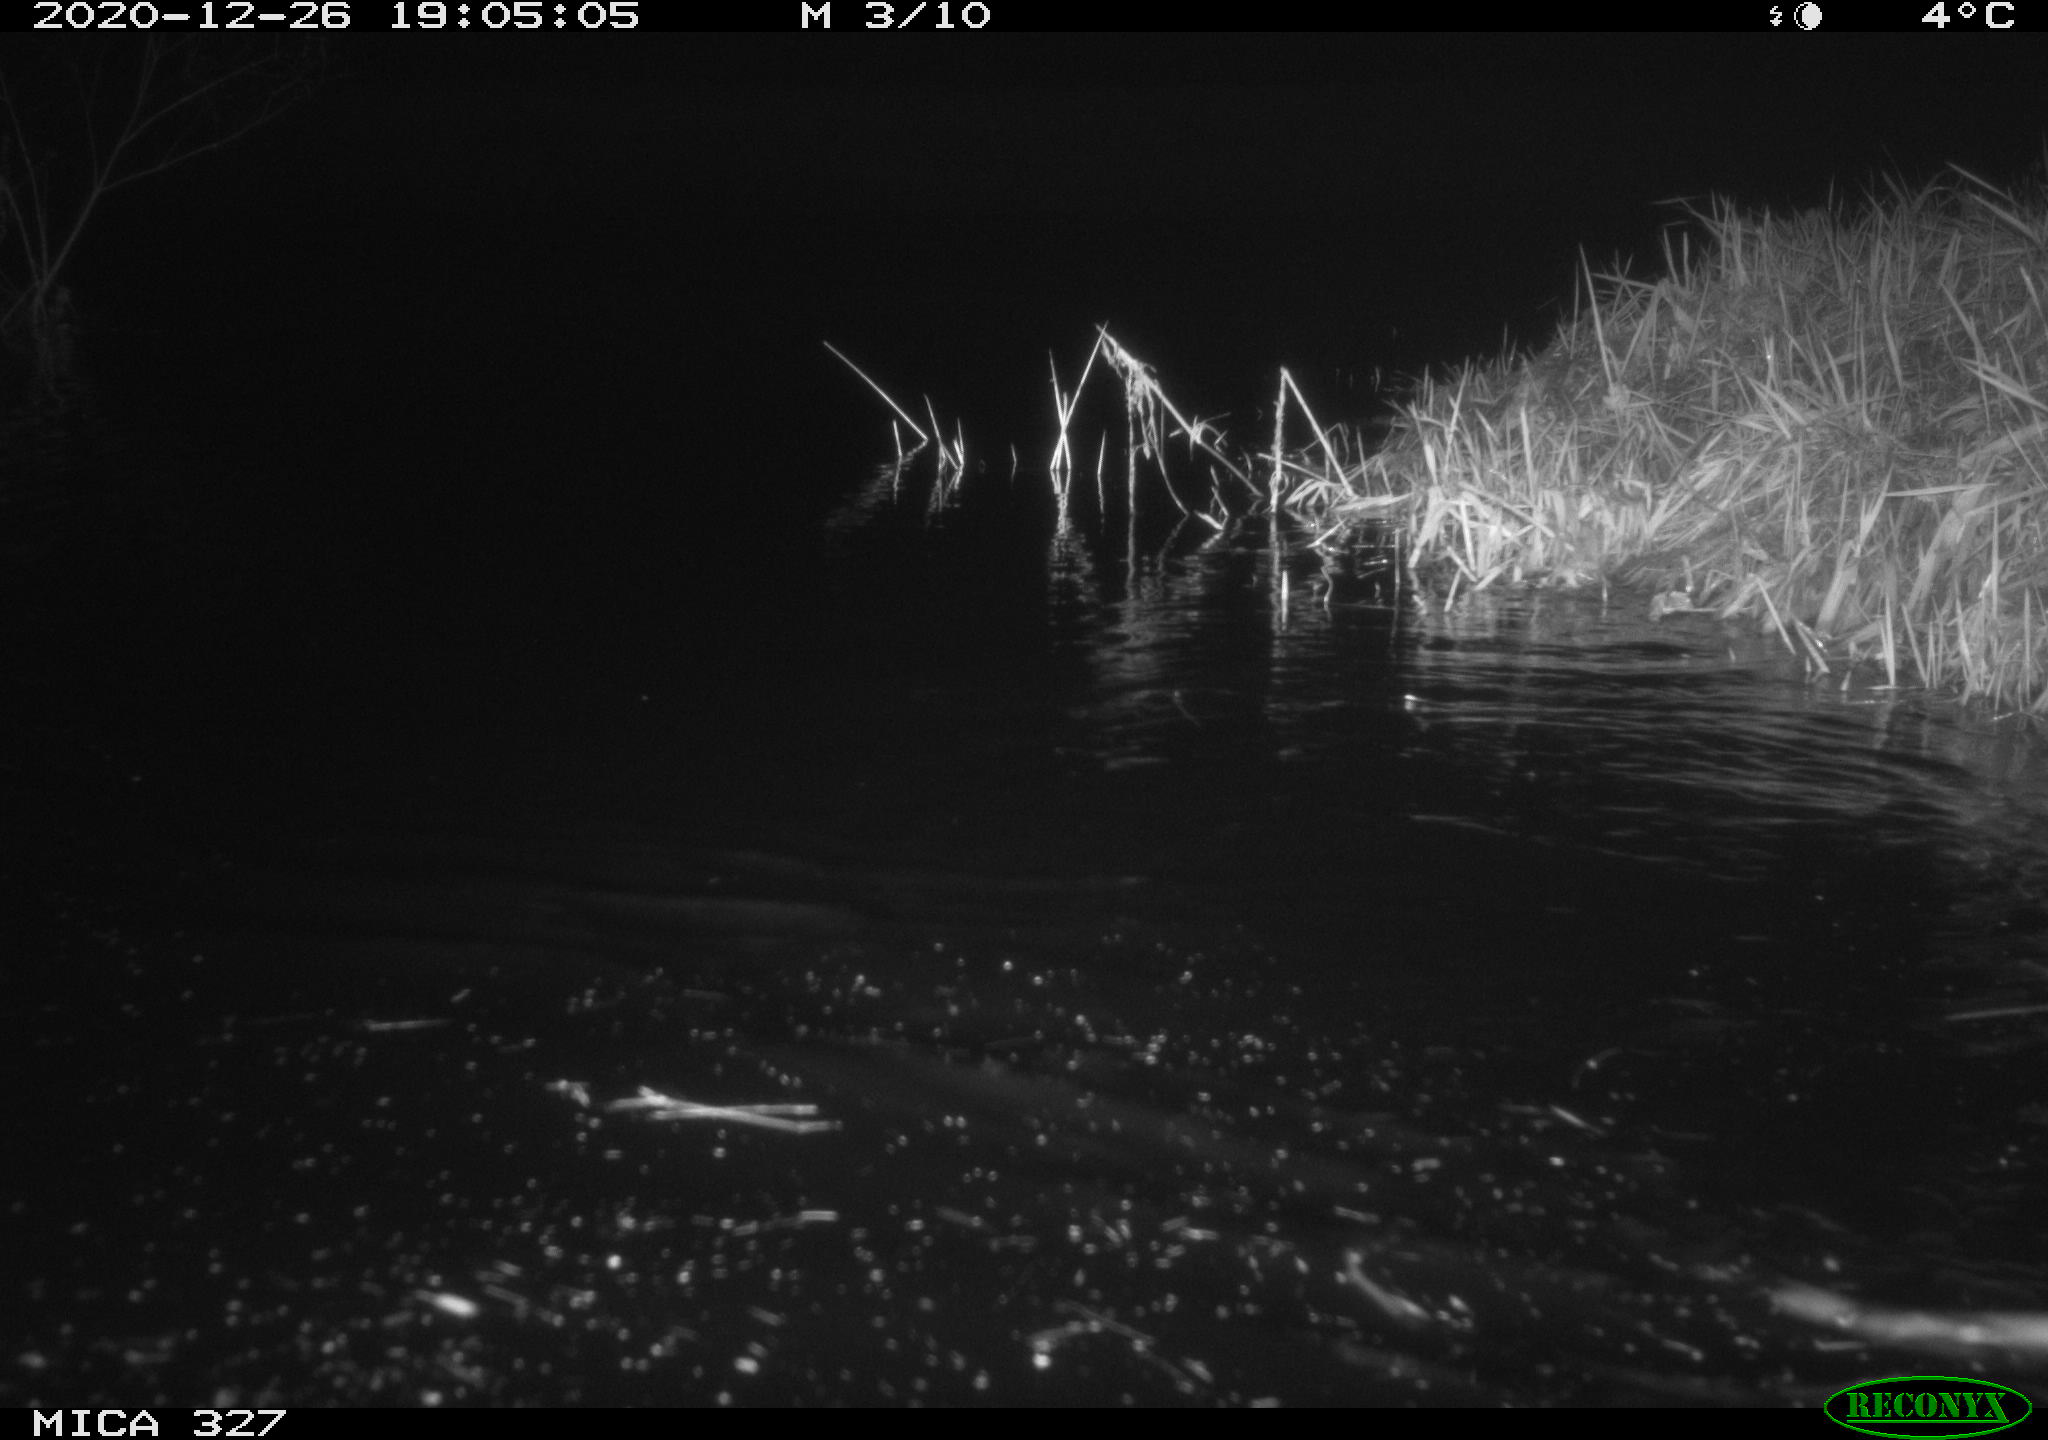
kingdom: Animalia
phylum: Chordata
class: Mammalia
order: Rodentia
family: Cricetidae
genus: Ondatra
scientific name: Ondatra zibethicus
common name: Muskrat
